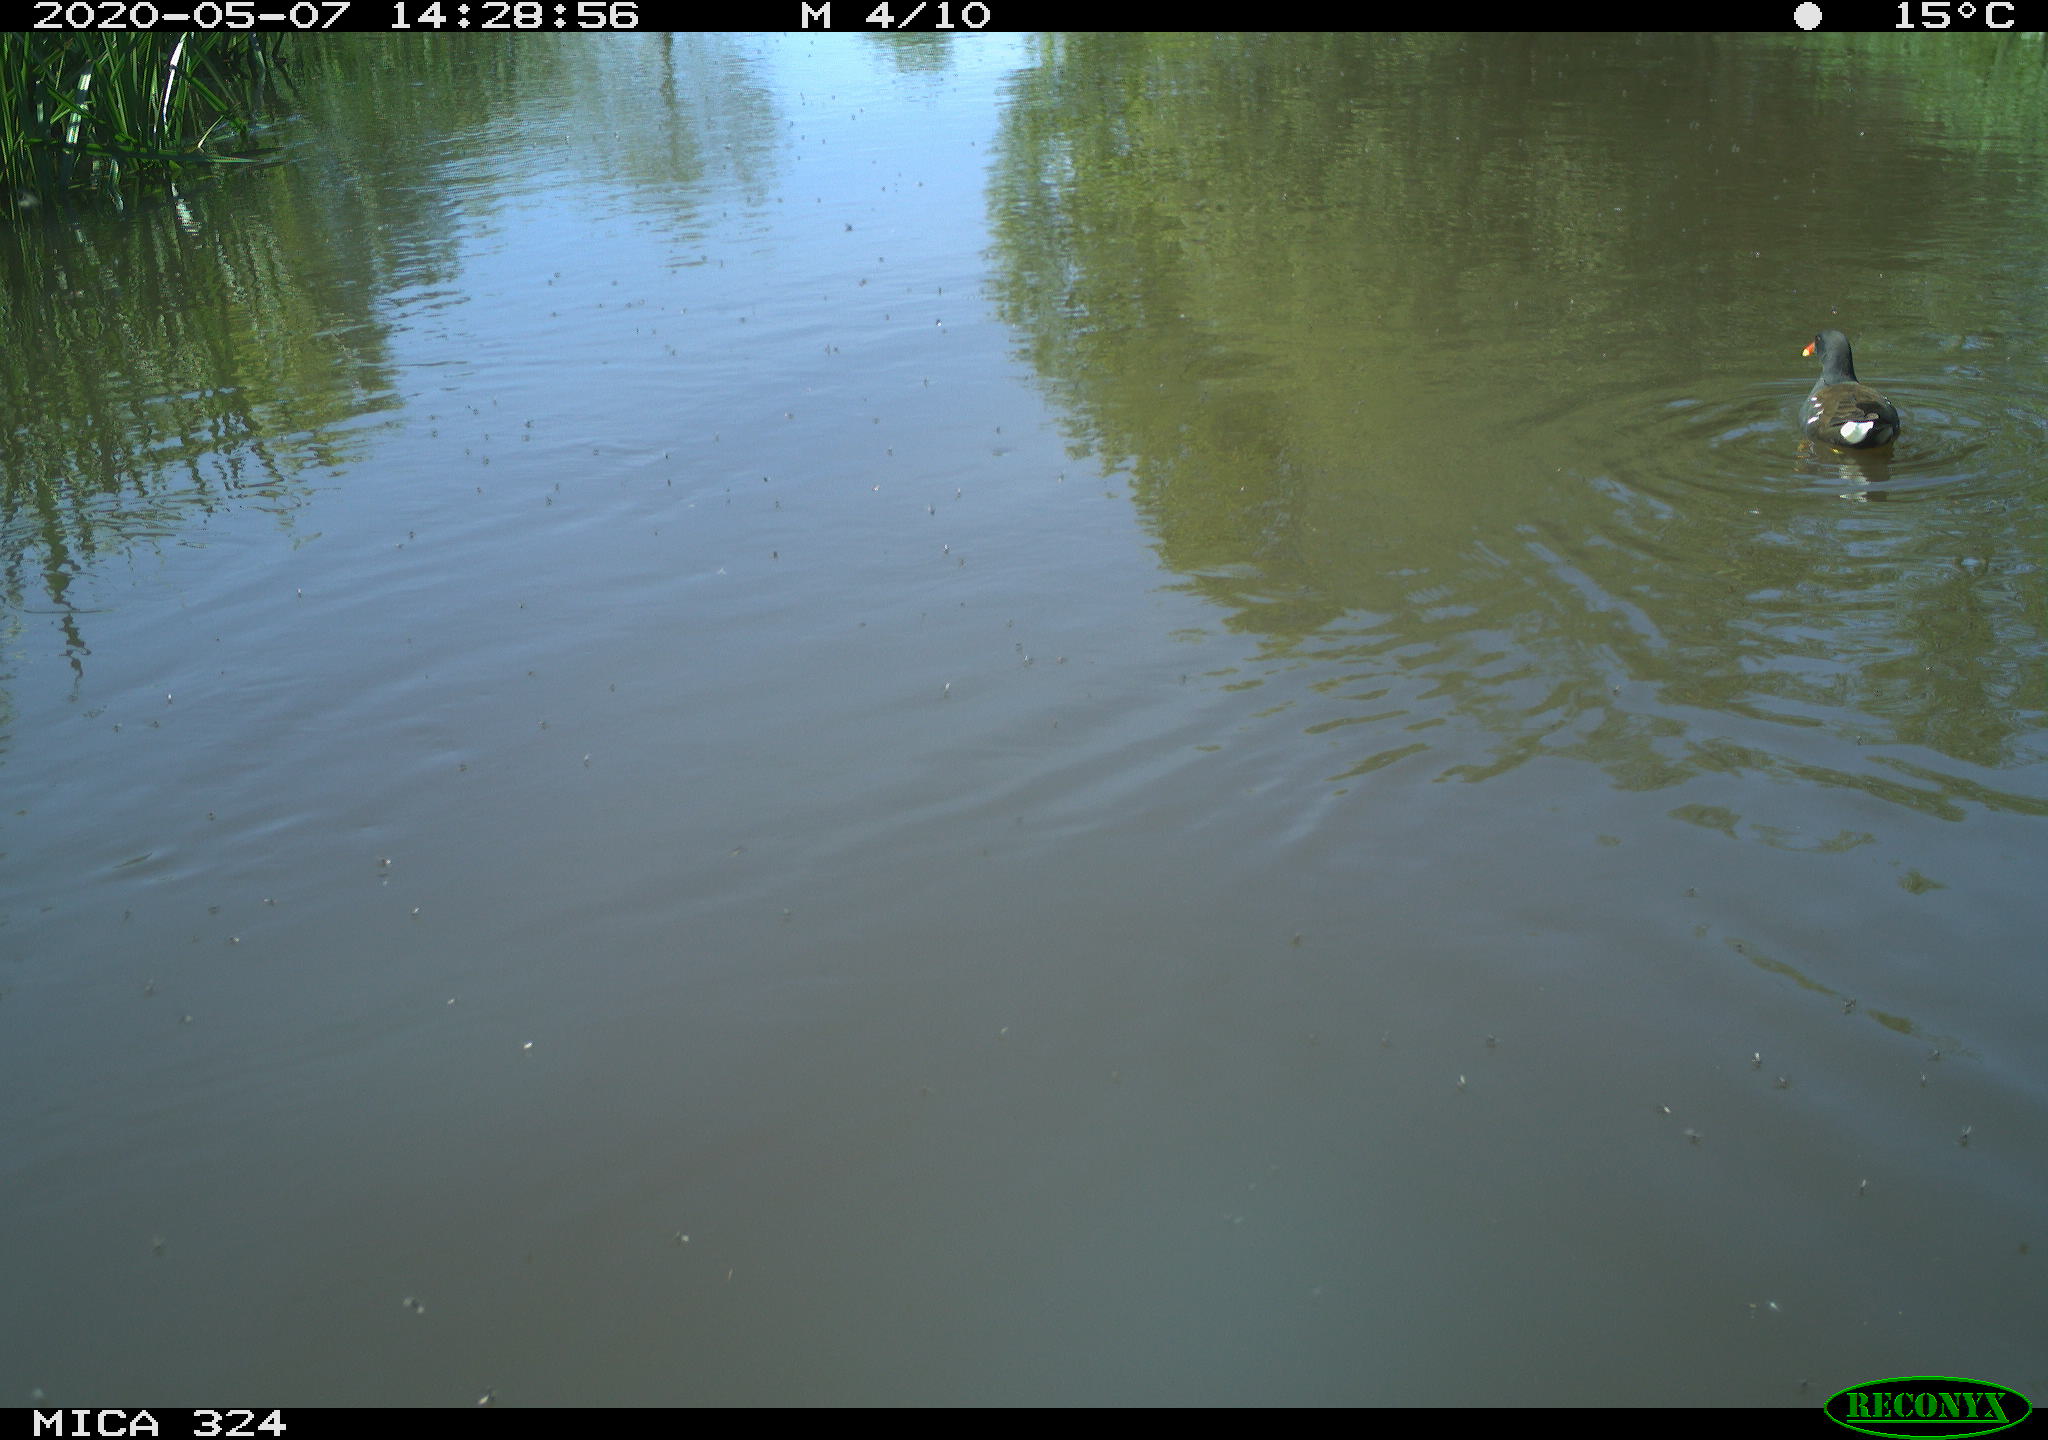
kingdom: Animalia
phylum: Chordata
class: Aves
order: Gruiformes
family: Rallidae
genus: Gallinula
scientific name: Gallinula chloropus
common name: Common moorhen
